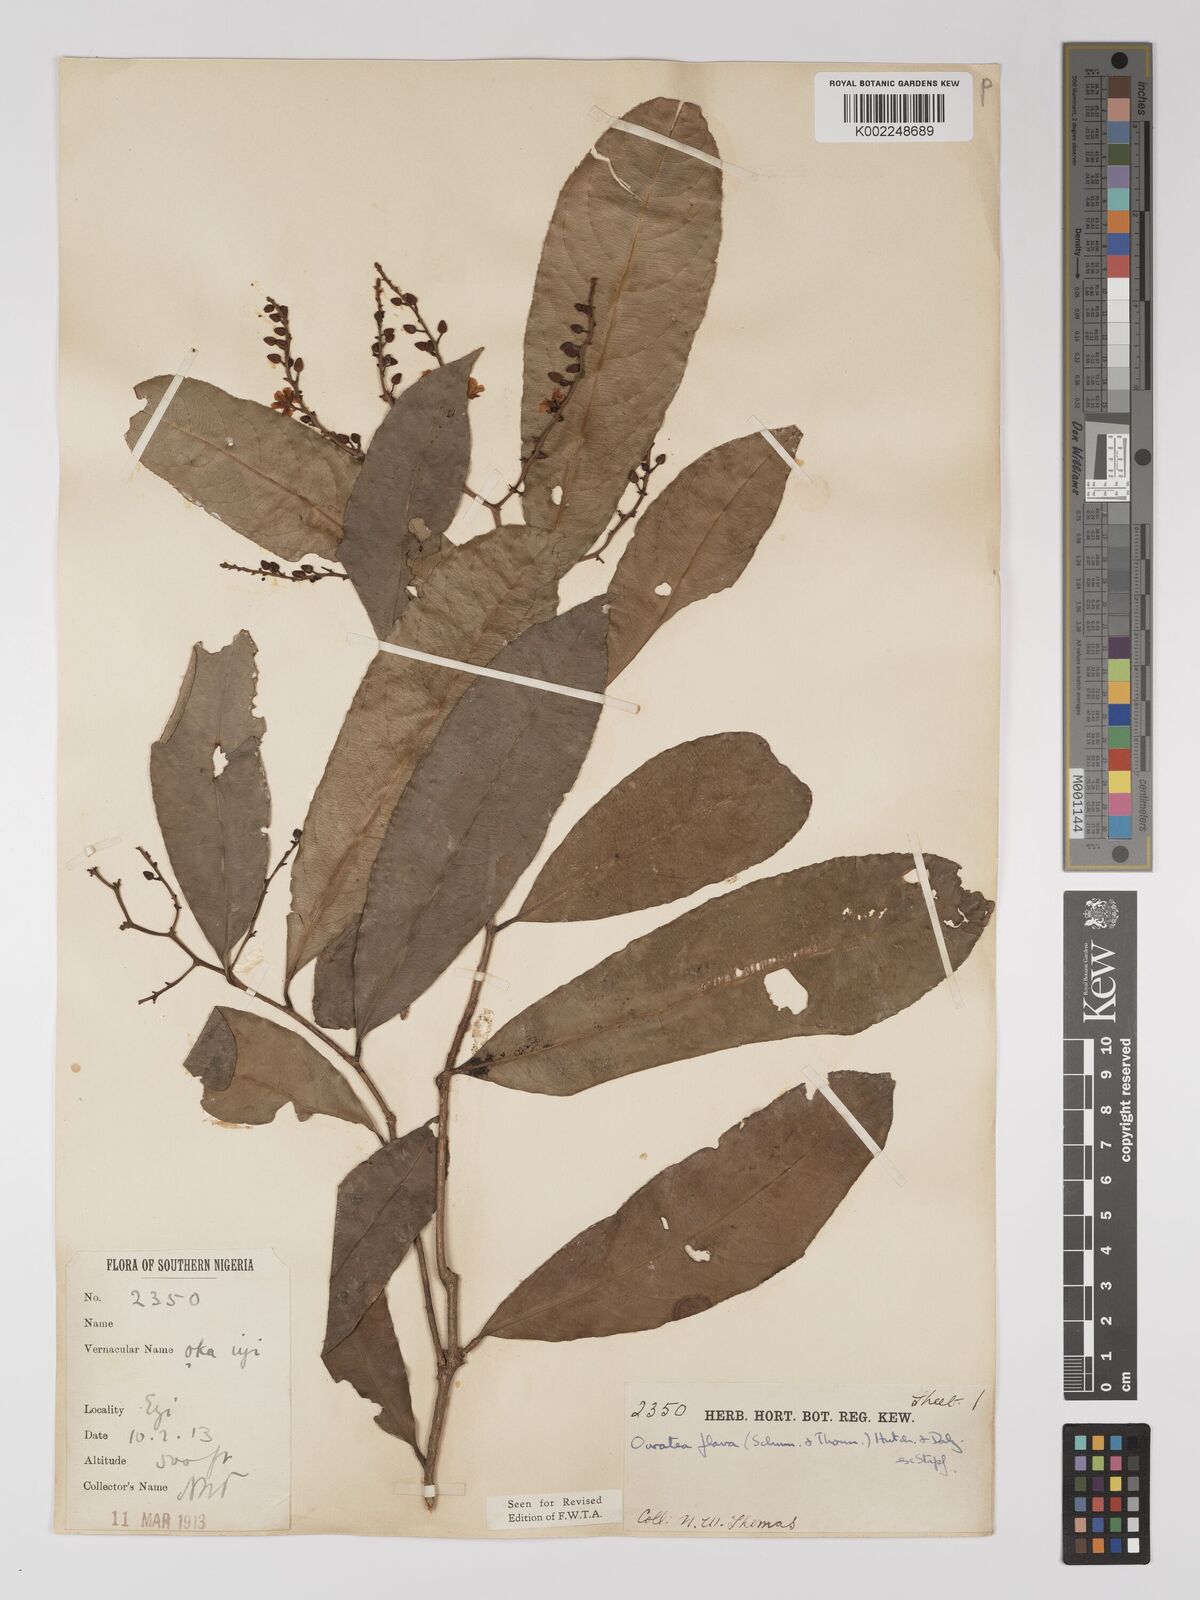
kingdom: Plantae
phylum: Tracheophyta
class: Magnoliopsida
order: Malpighiales
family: Ochnaceae
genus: Campylospermum
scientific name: Campylospermum flavum
